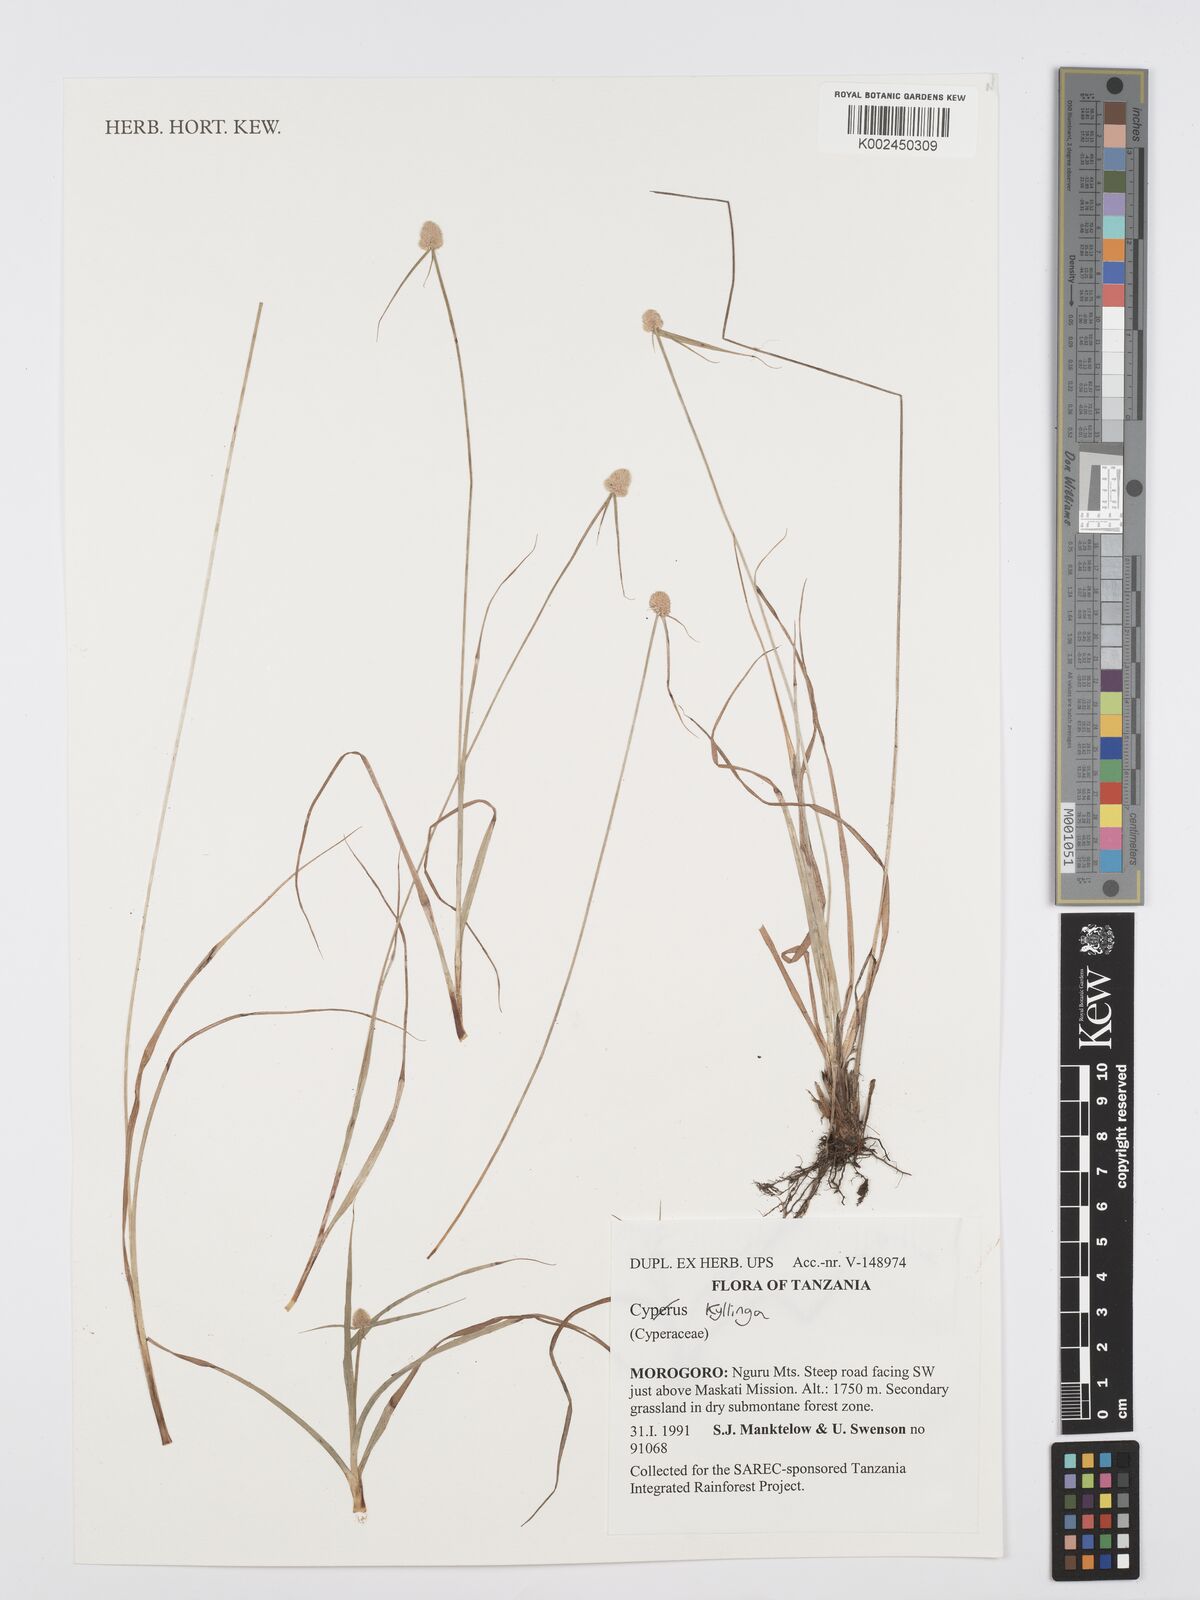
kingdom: Plantae
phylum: Tracheophyta
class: Liliopsida
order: Poales
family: Cyperaceae
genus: Cyperus
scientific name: Cyperus
